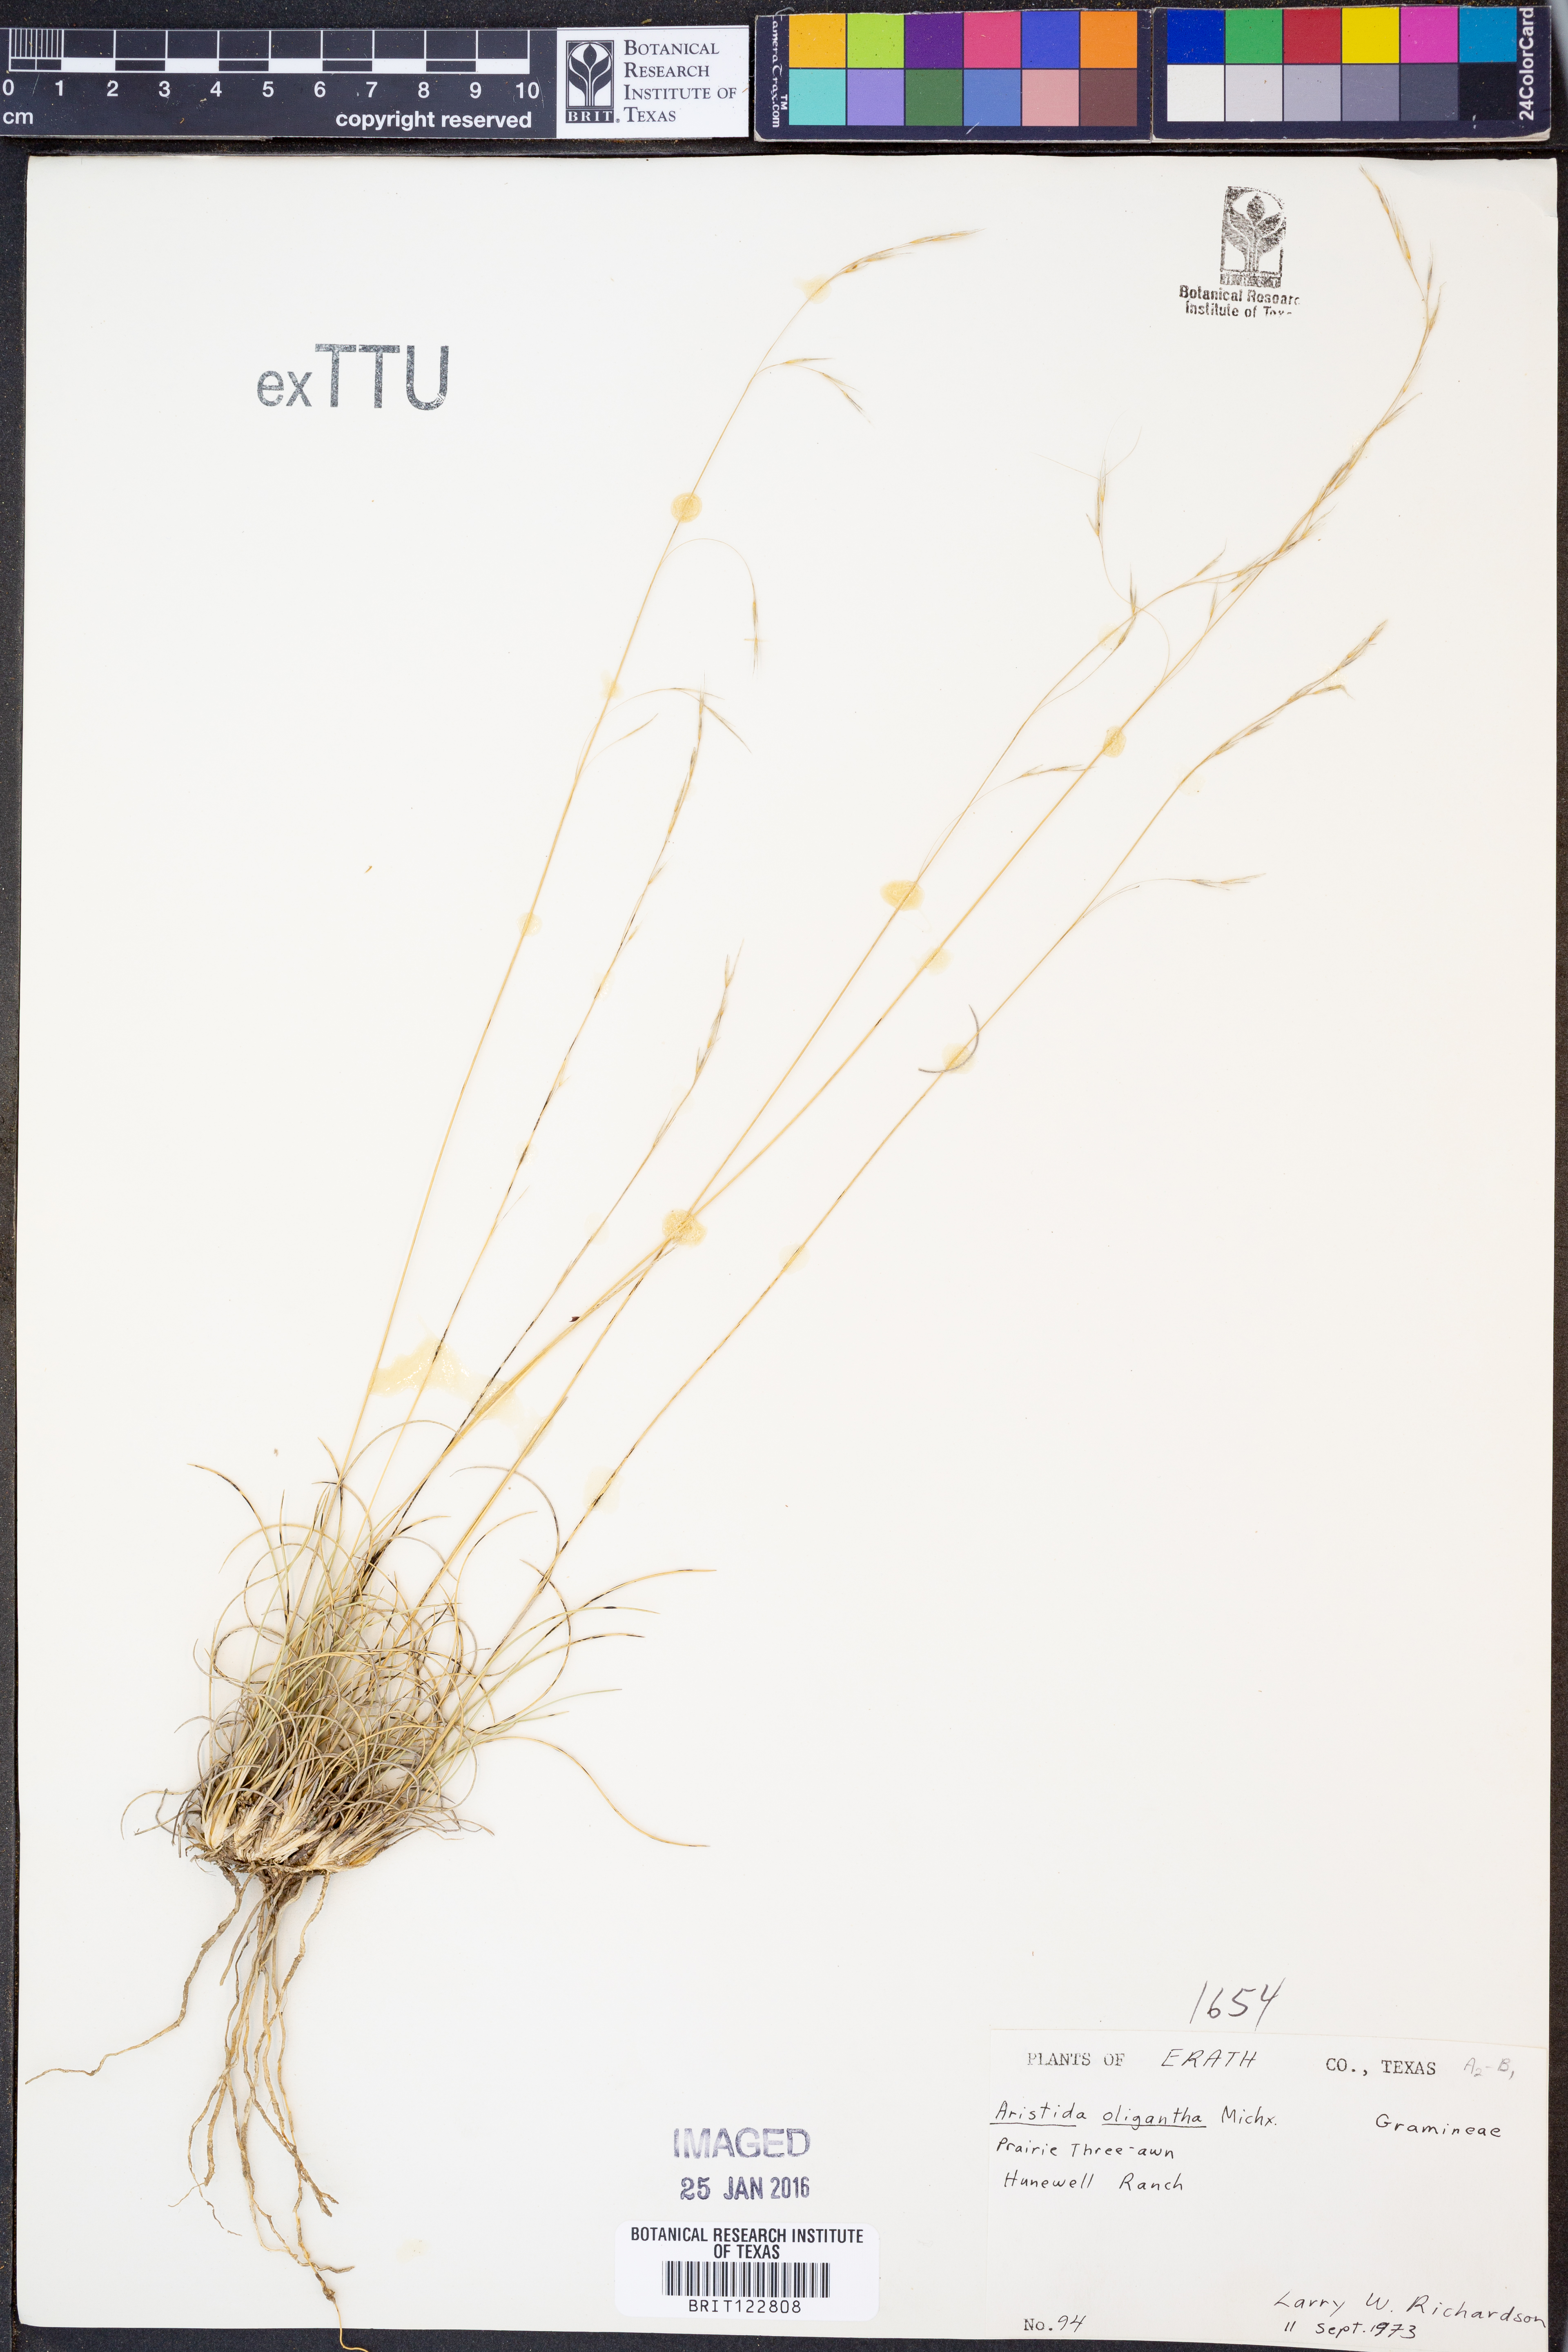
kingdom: Plantae
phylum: Tracheophyta
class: Liliopsida
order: Poales
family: Poaceae
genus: Aristida
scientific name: Aristida oligantha
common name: Few-flowered aristida
